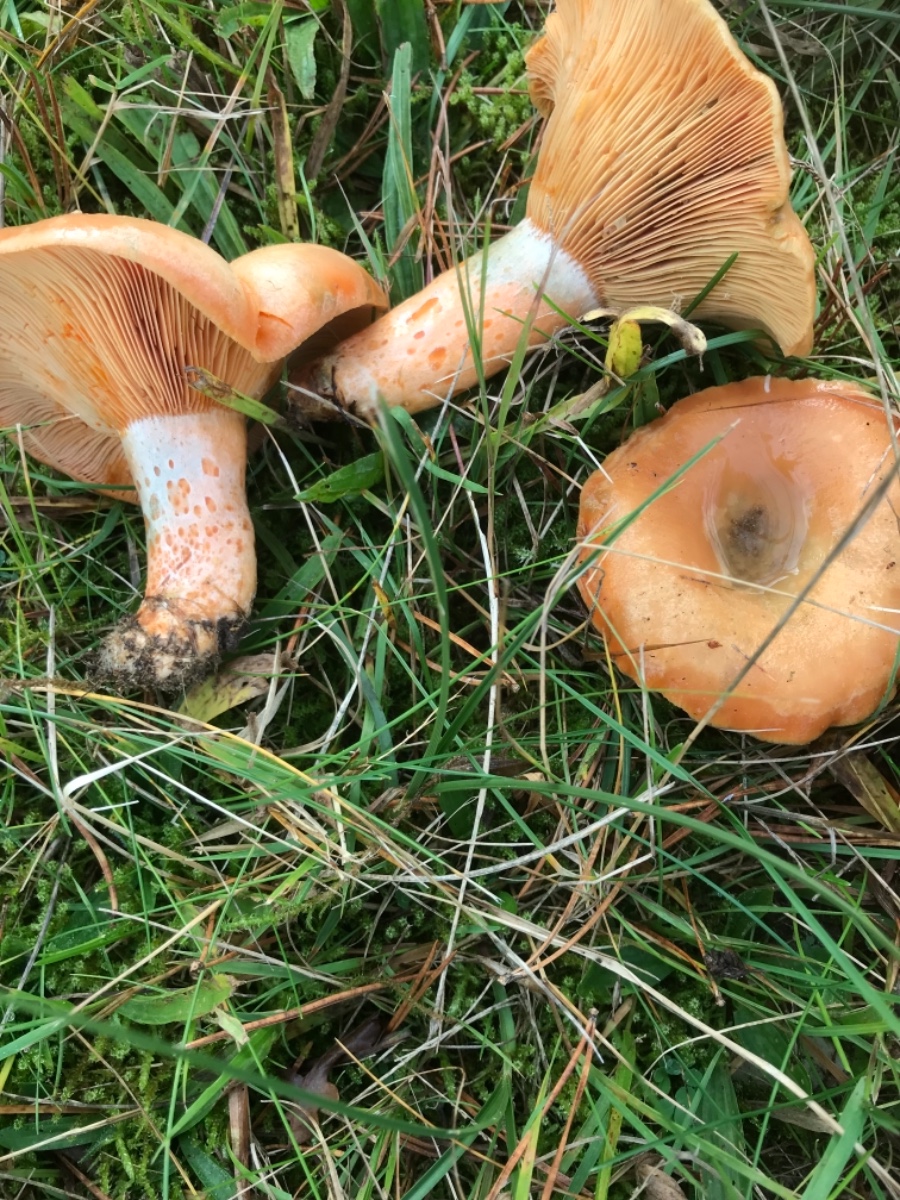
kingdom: Fungi
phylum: Basidiomycota
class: Agaricomycetes
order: Russulales
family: Russulaceae
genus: Lactarius
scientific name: Lactarius deliciosus
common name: velsmagende mælkehat
